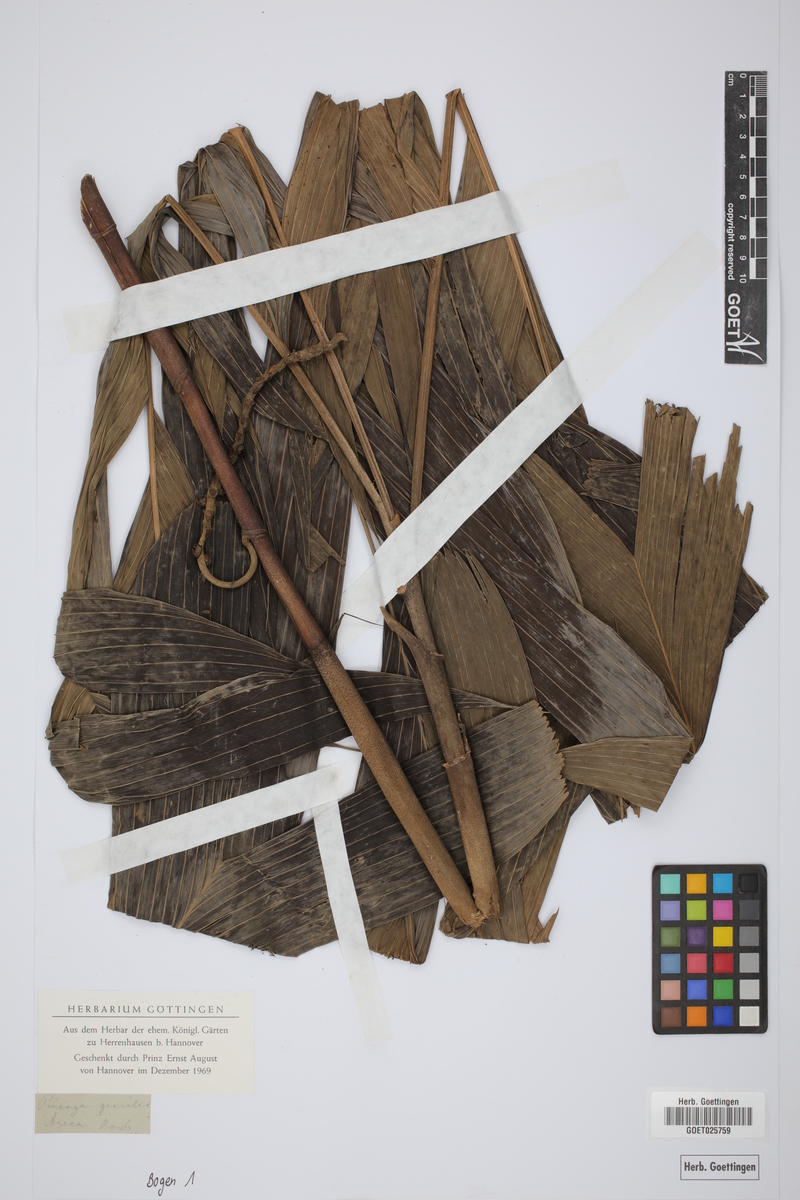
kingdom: Plantae
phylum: Tracheophyta
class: Liliopsida
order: Arecales
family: Arecaceae
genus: Pinanga
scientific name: Pinanga gracilis
